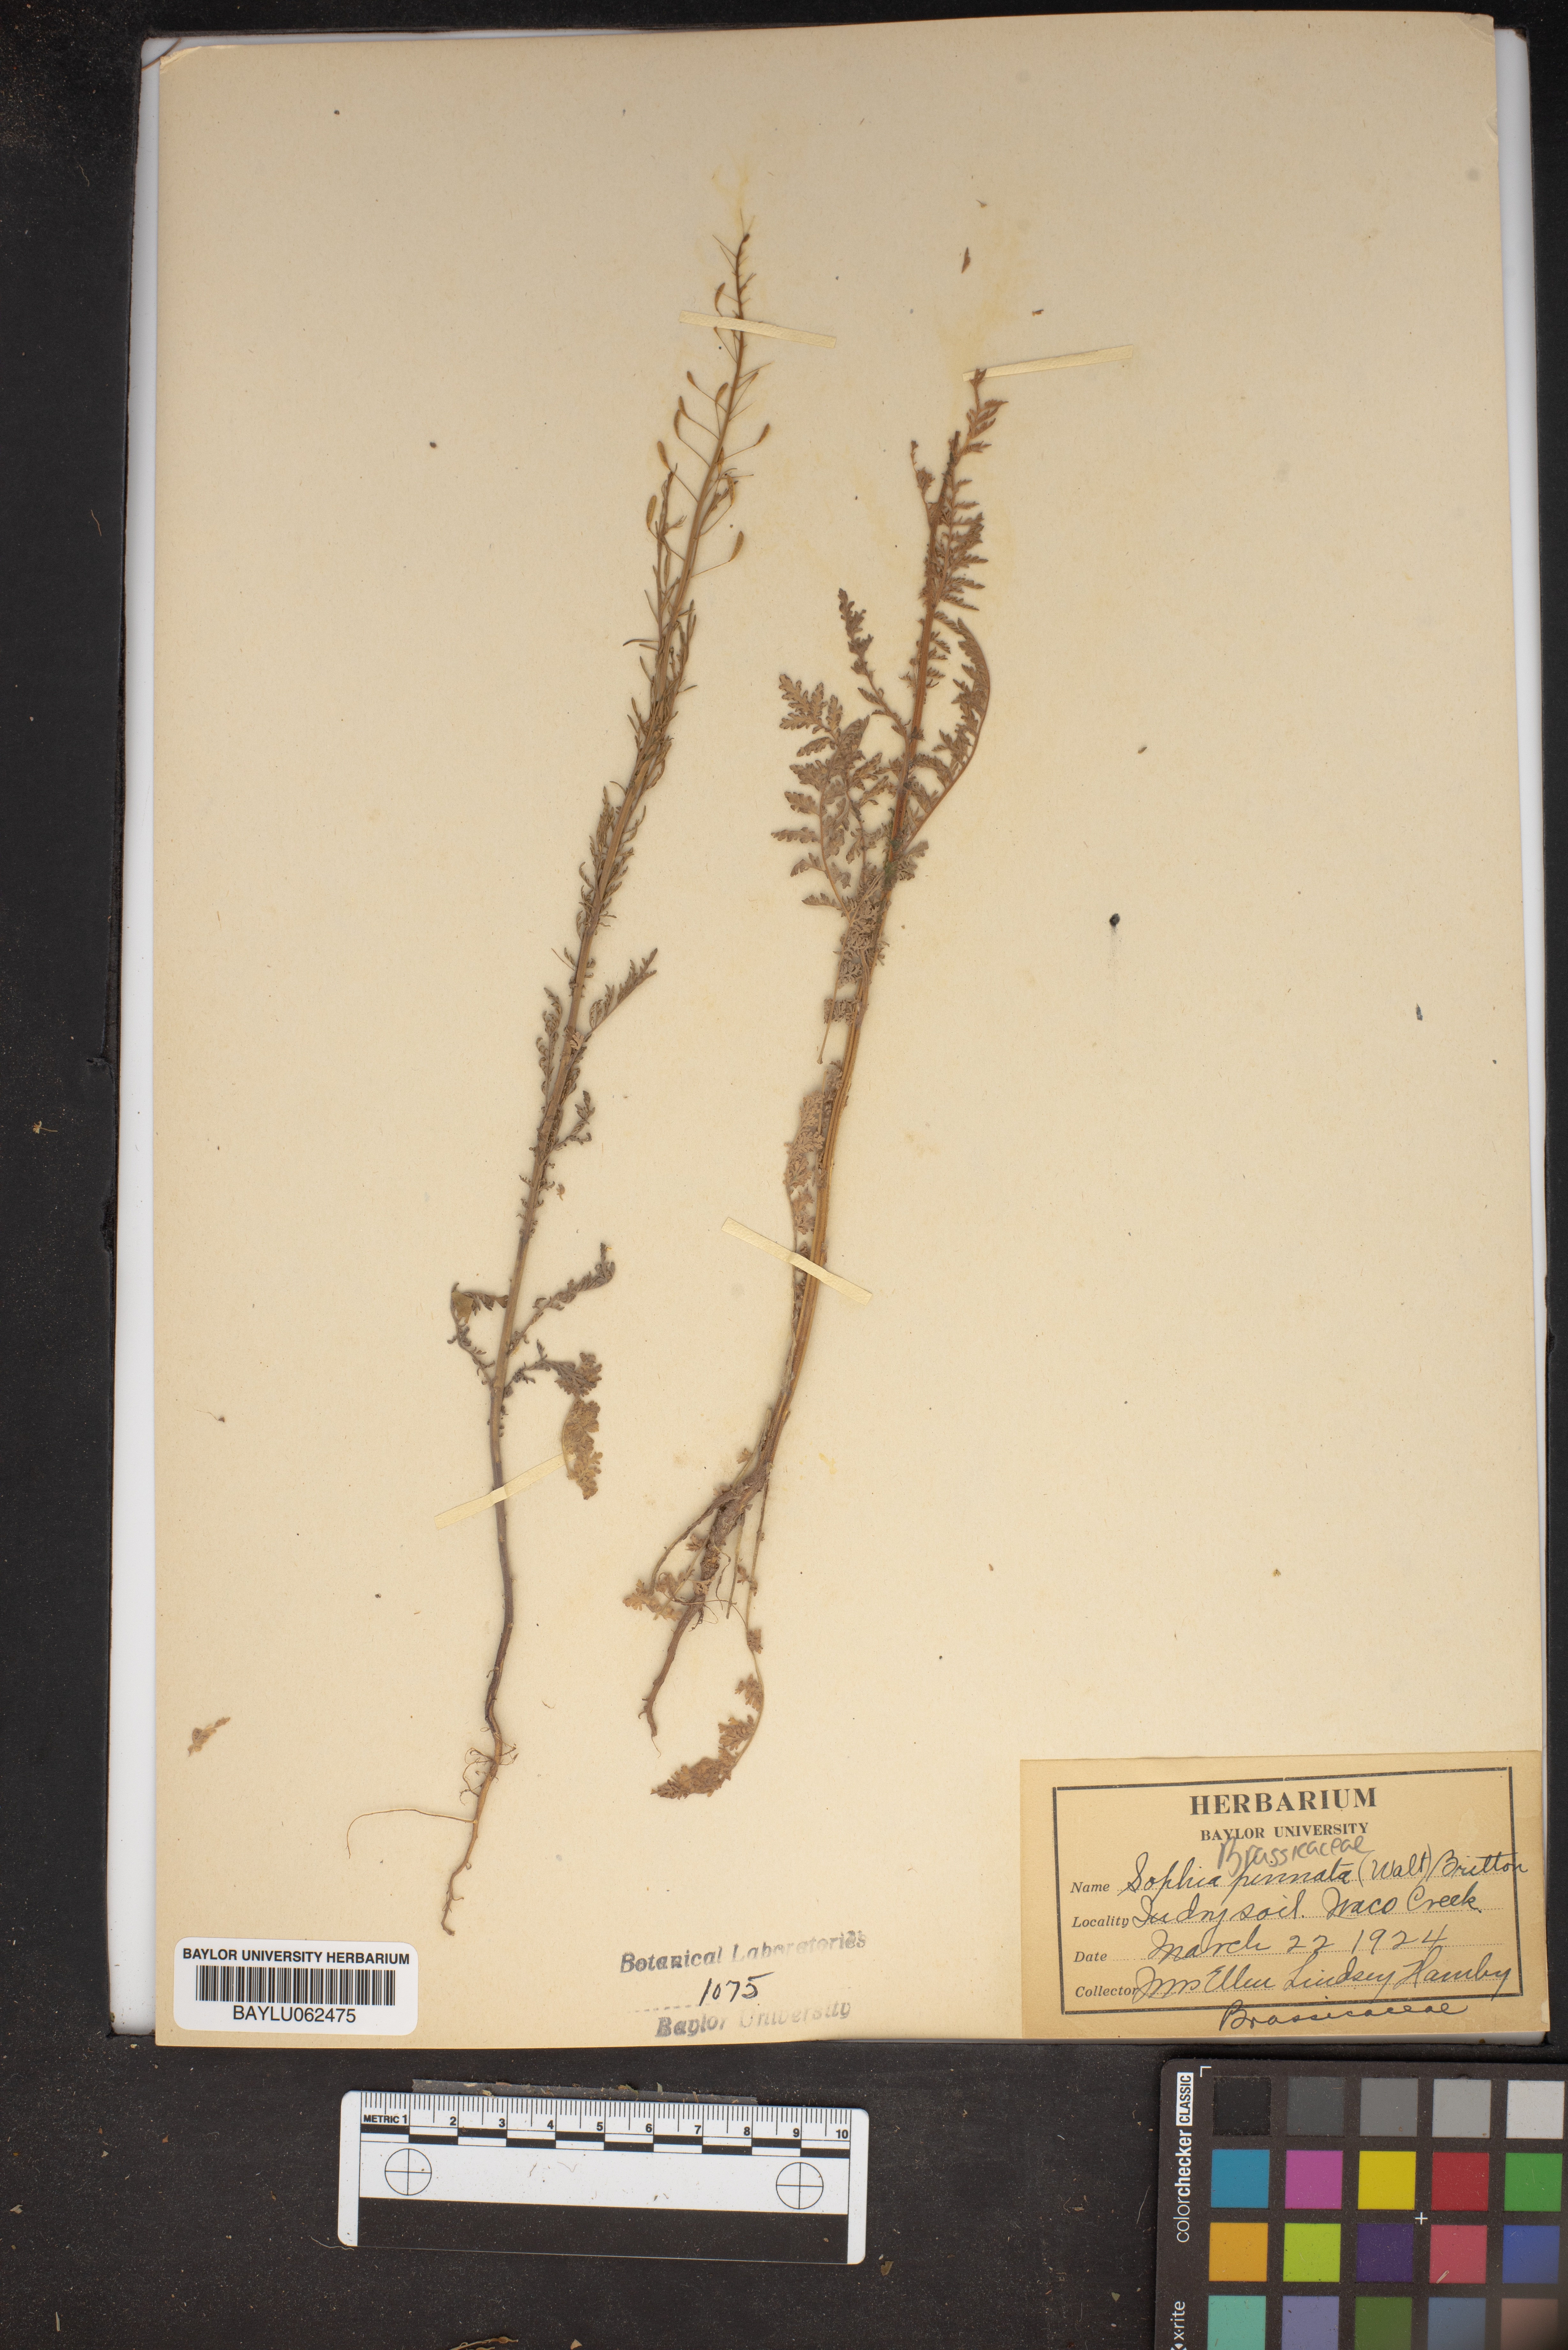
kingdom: Plantae
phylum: Tracheophyta
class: Magnoliopsida
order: Brassicales
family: Brassicaceae
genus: Descurainia
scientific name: Descurainia pinnata
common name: Western tansy mustard
